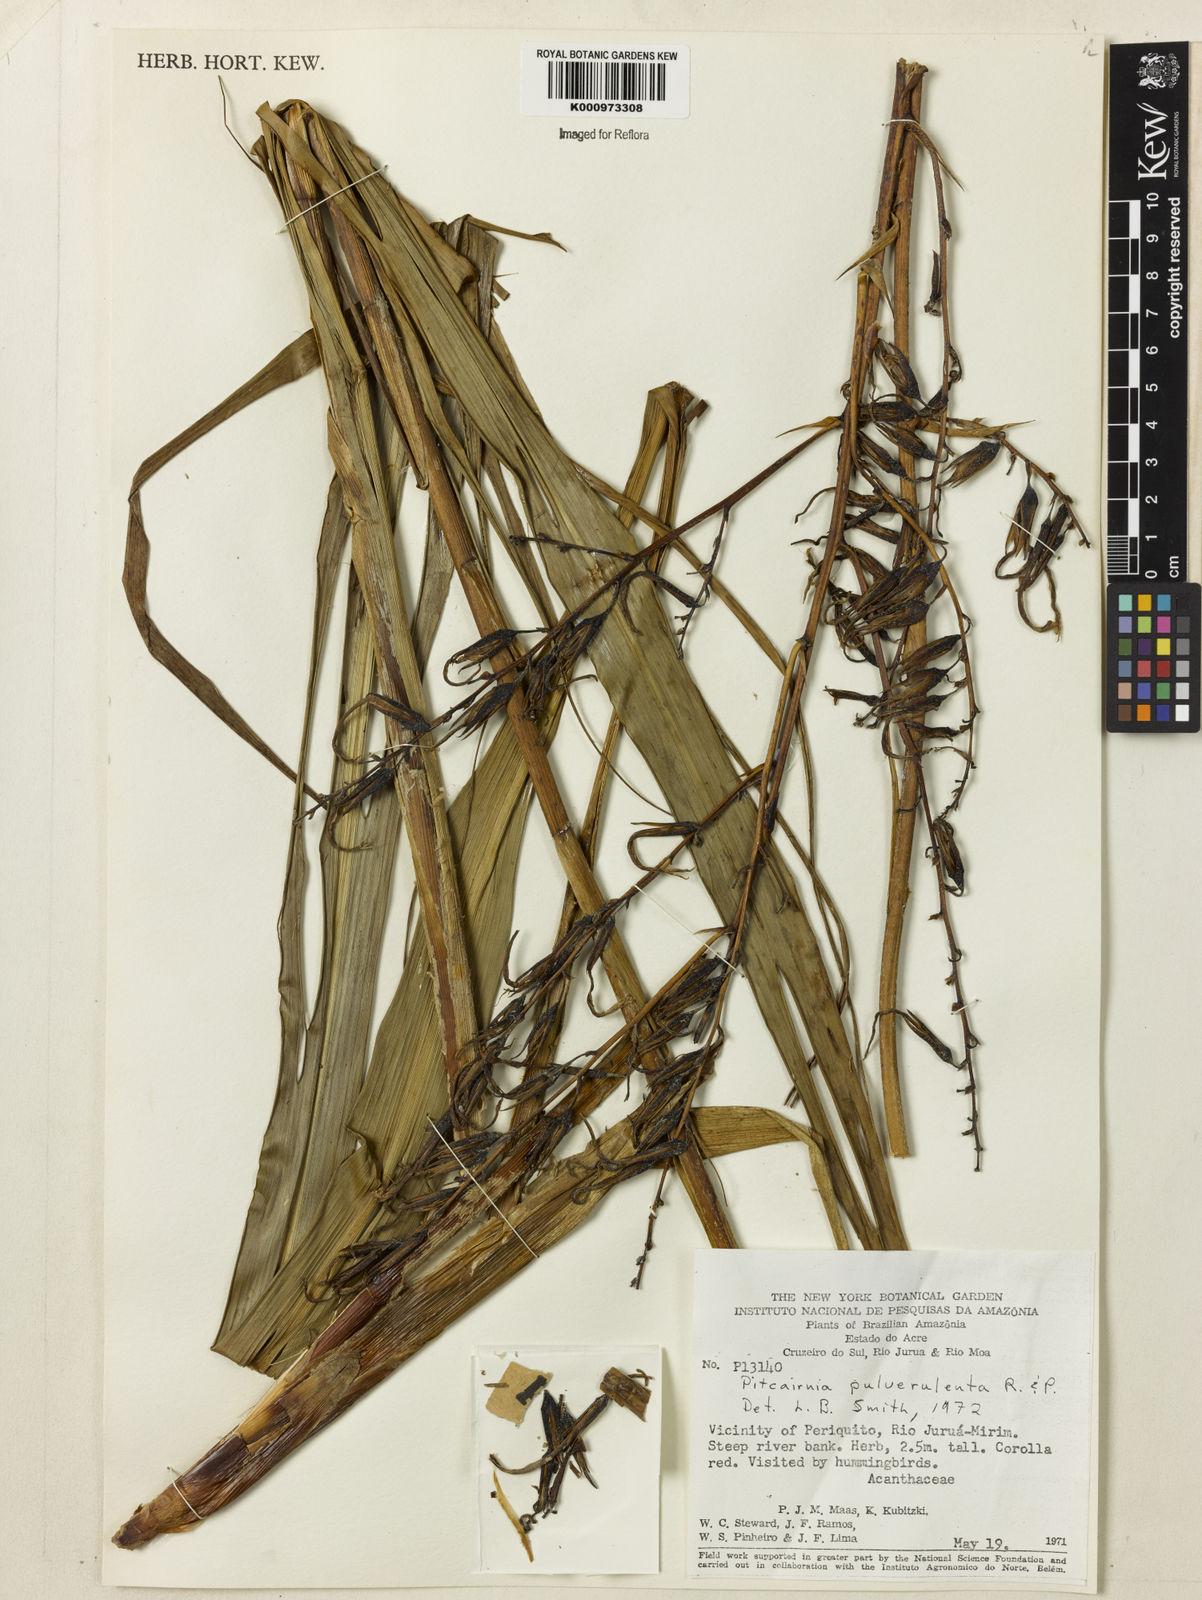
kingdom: Plantae
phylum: Tracheophyta
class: Liliopsida
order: Poales
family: Bromeliaceae
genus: Pitcairnia
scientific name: Pitcairnia pulverulenta
